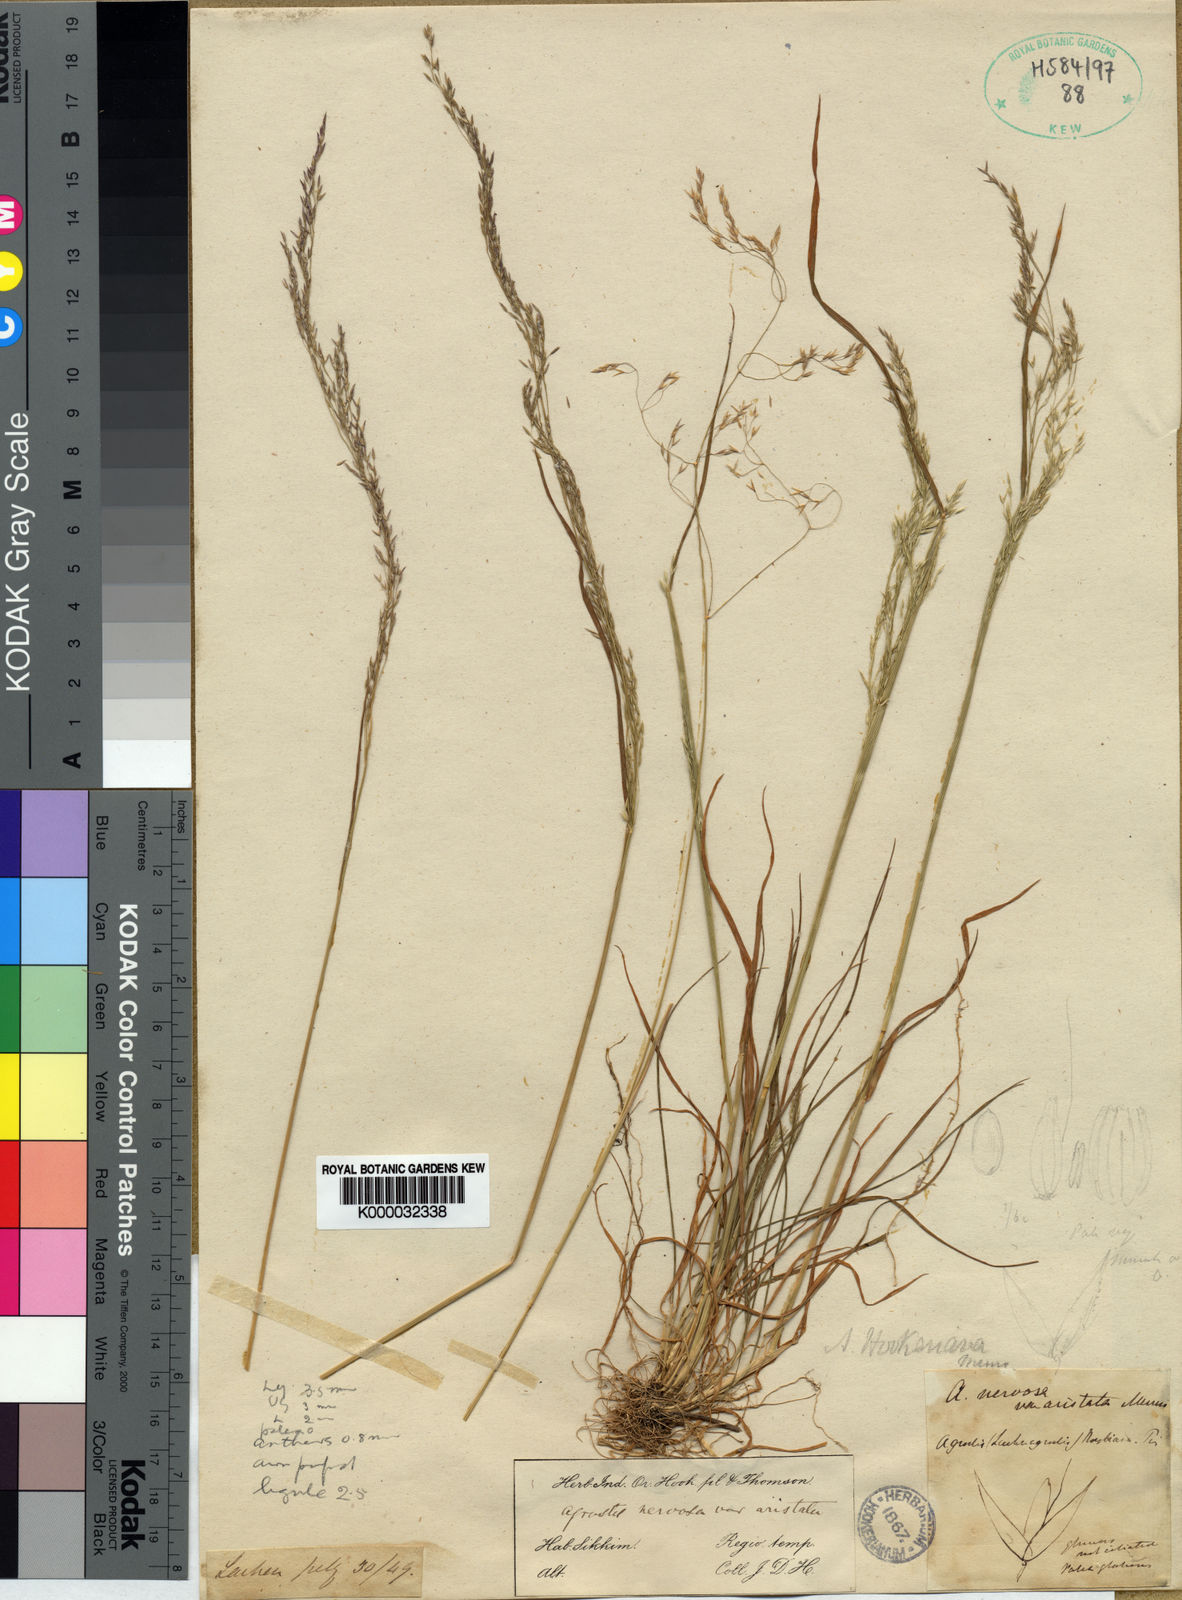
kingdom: Plantae
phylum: Tracheophyta
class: Liliopsida
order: Poales
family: Poaceae
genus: Agrostis
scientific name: Agrostis
